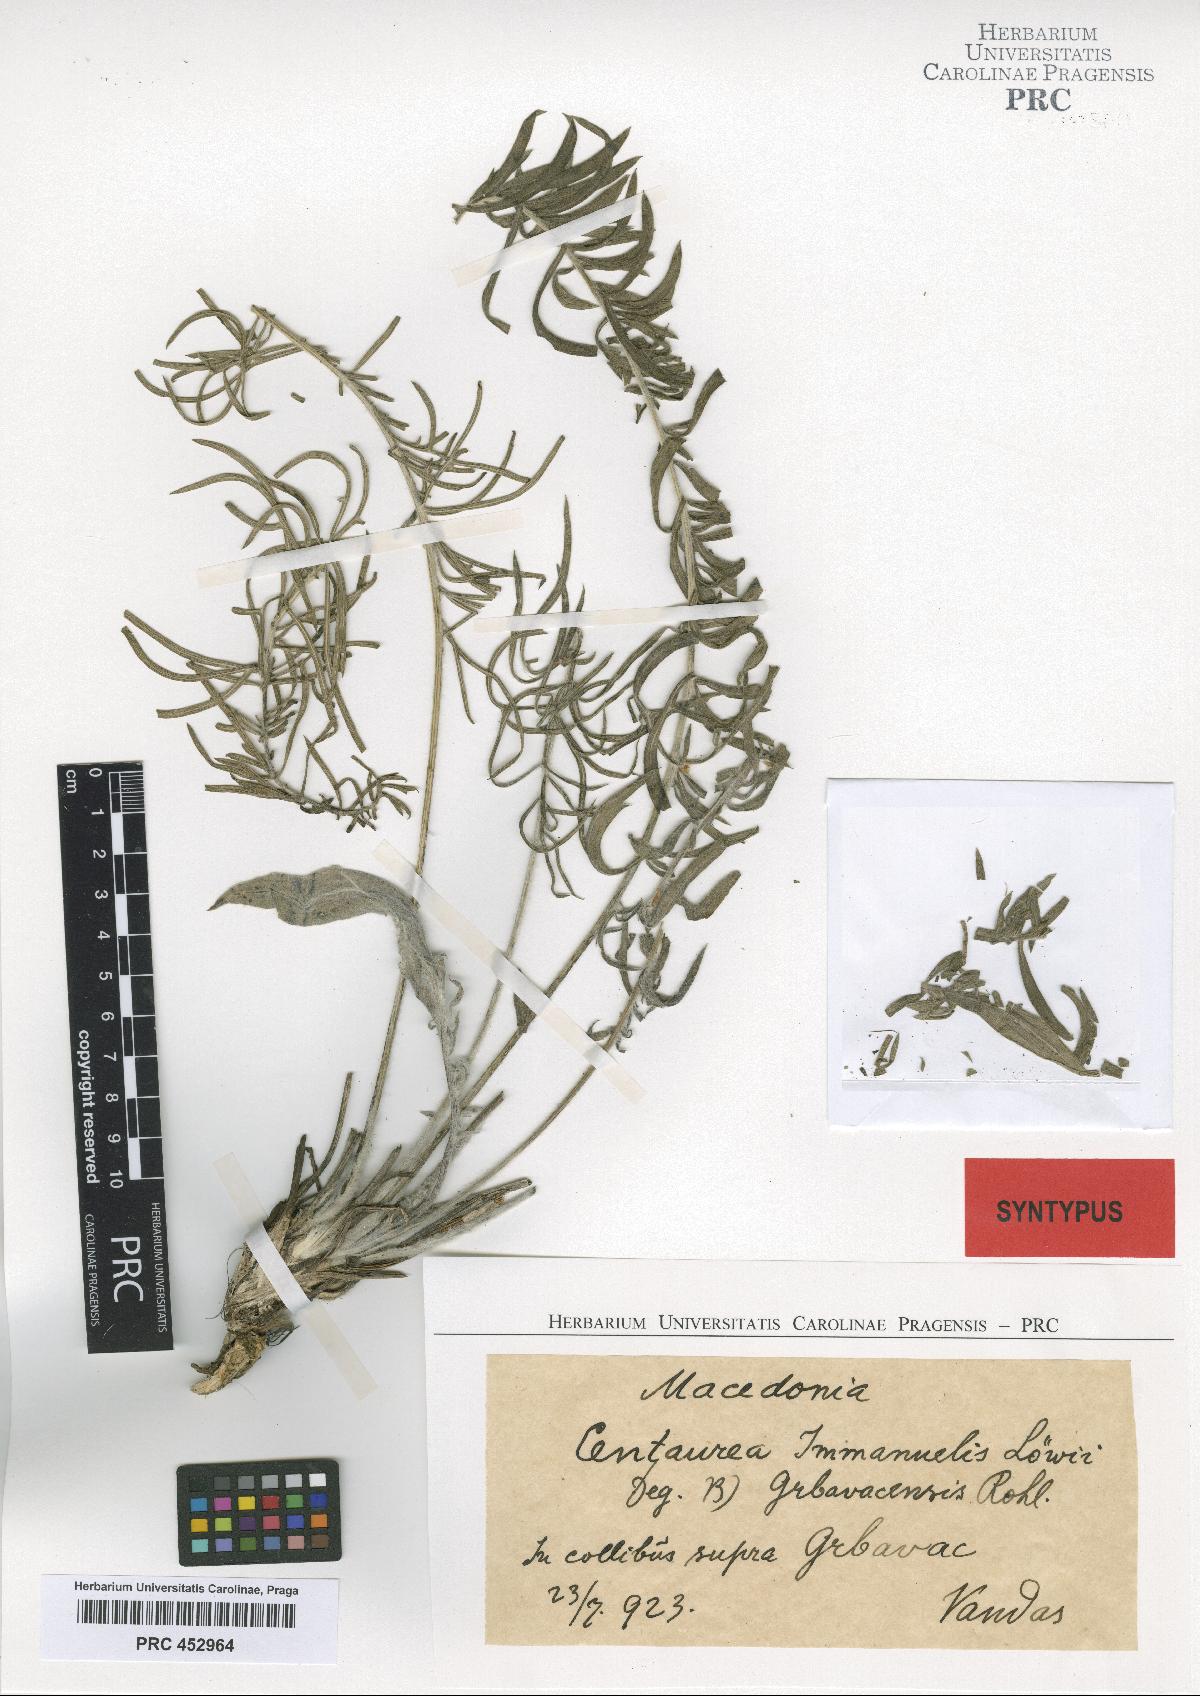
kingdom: Plantae
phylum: Tracheophyta
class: Magnoliopsida
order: Asterales
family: Asteraceae
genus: Centaurea
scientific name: Centaurea grbavacensis
